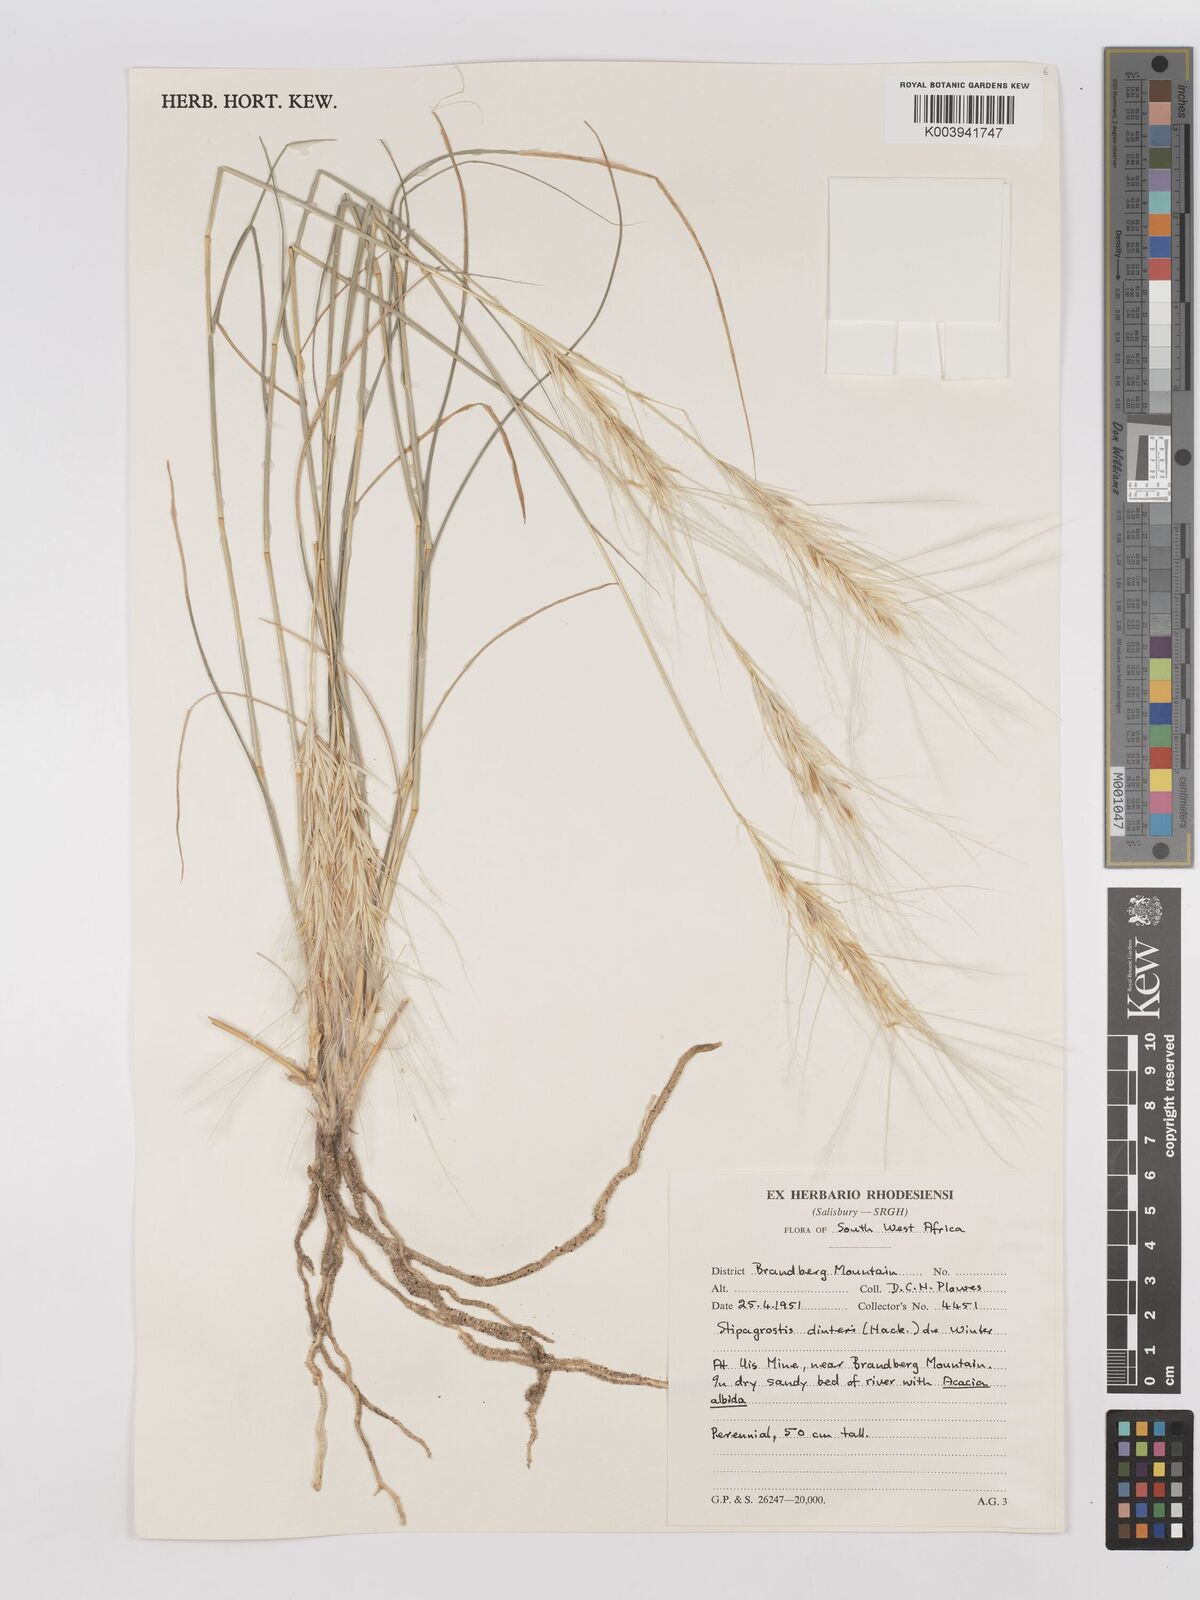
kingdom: Plantae
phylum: Tracheophyta
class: Liliopsida
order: Poales
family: Poaceae
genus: Stipagrostis
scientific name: Stipagrostis dinteri
